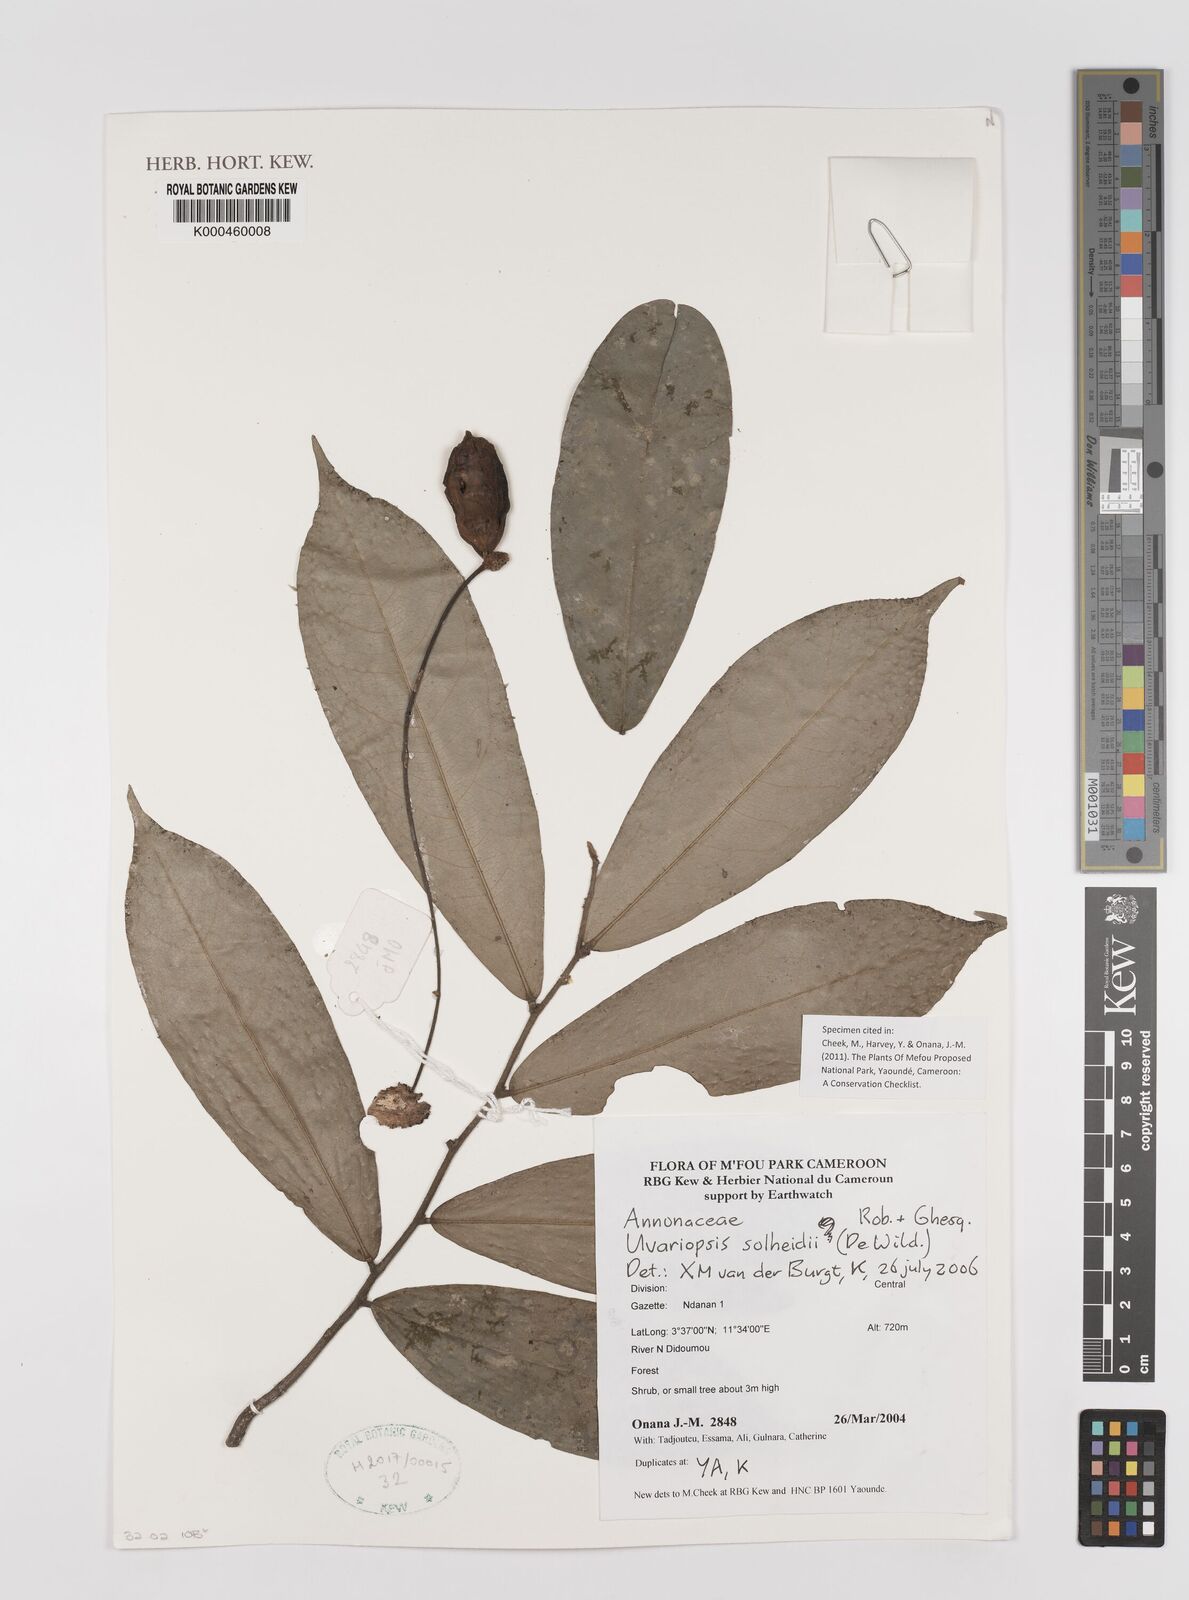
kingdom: Plantae
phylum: Tracheophyta
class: Magnoliopsida
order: Magnoliales
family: Annonaceae
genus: Uvariopsis
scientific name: Uvariopsis solheidii
